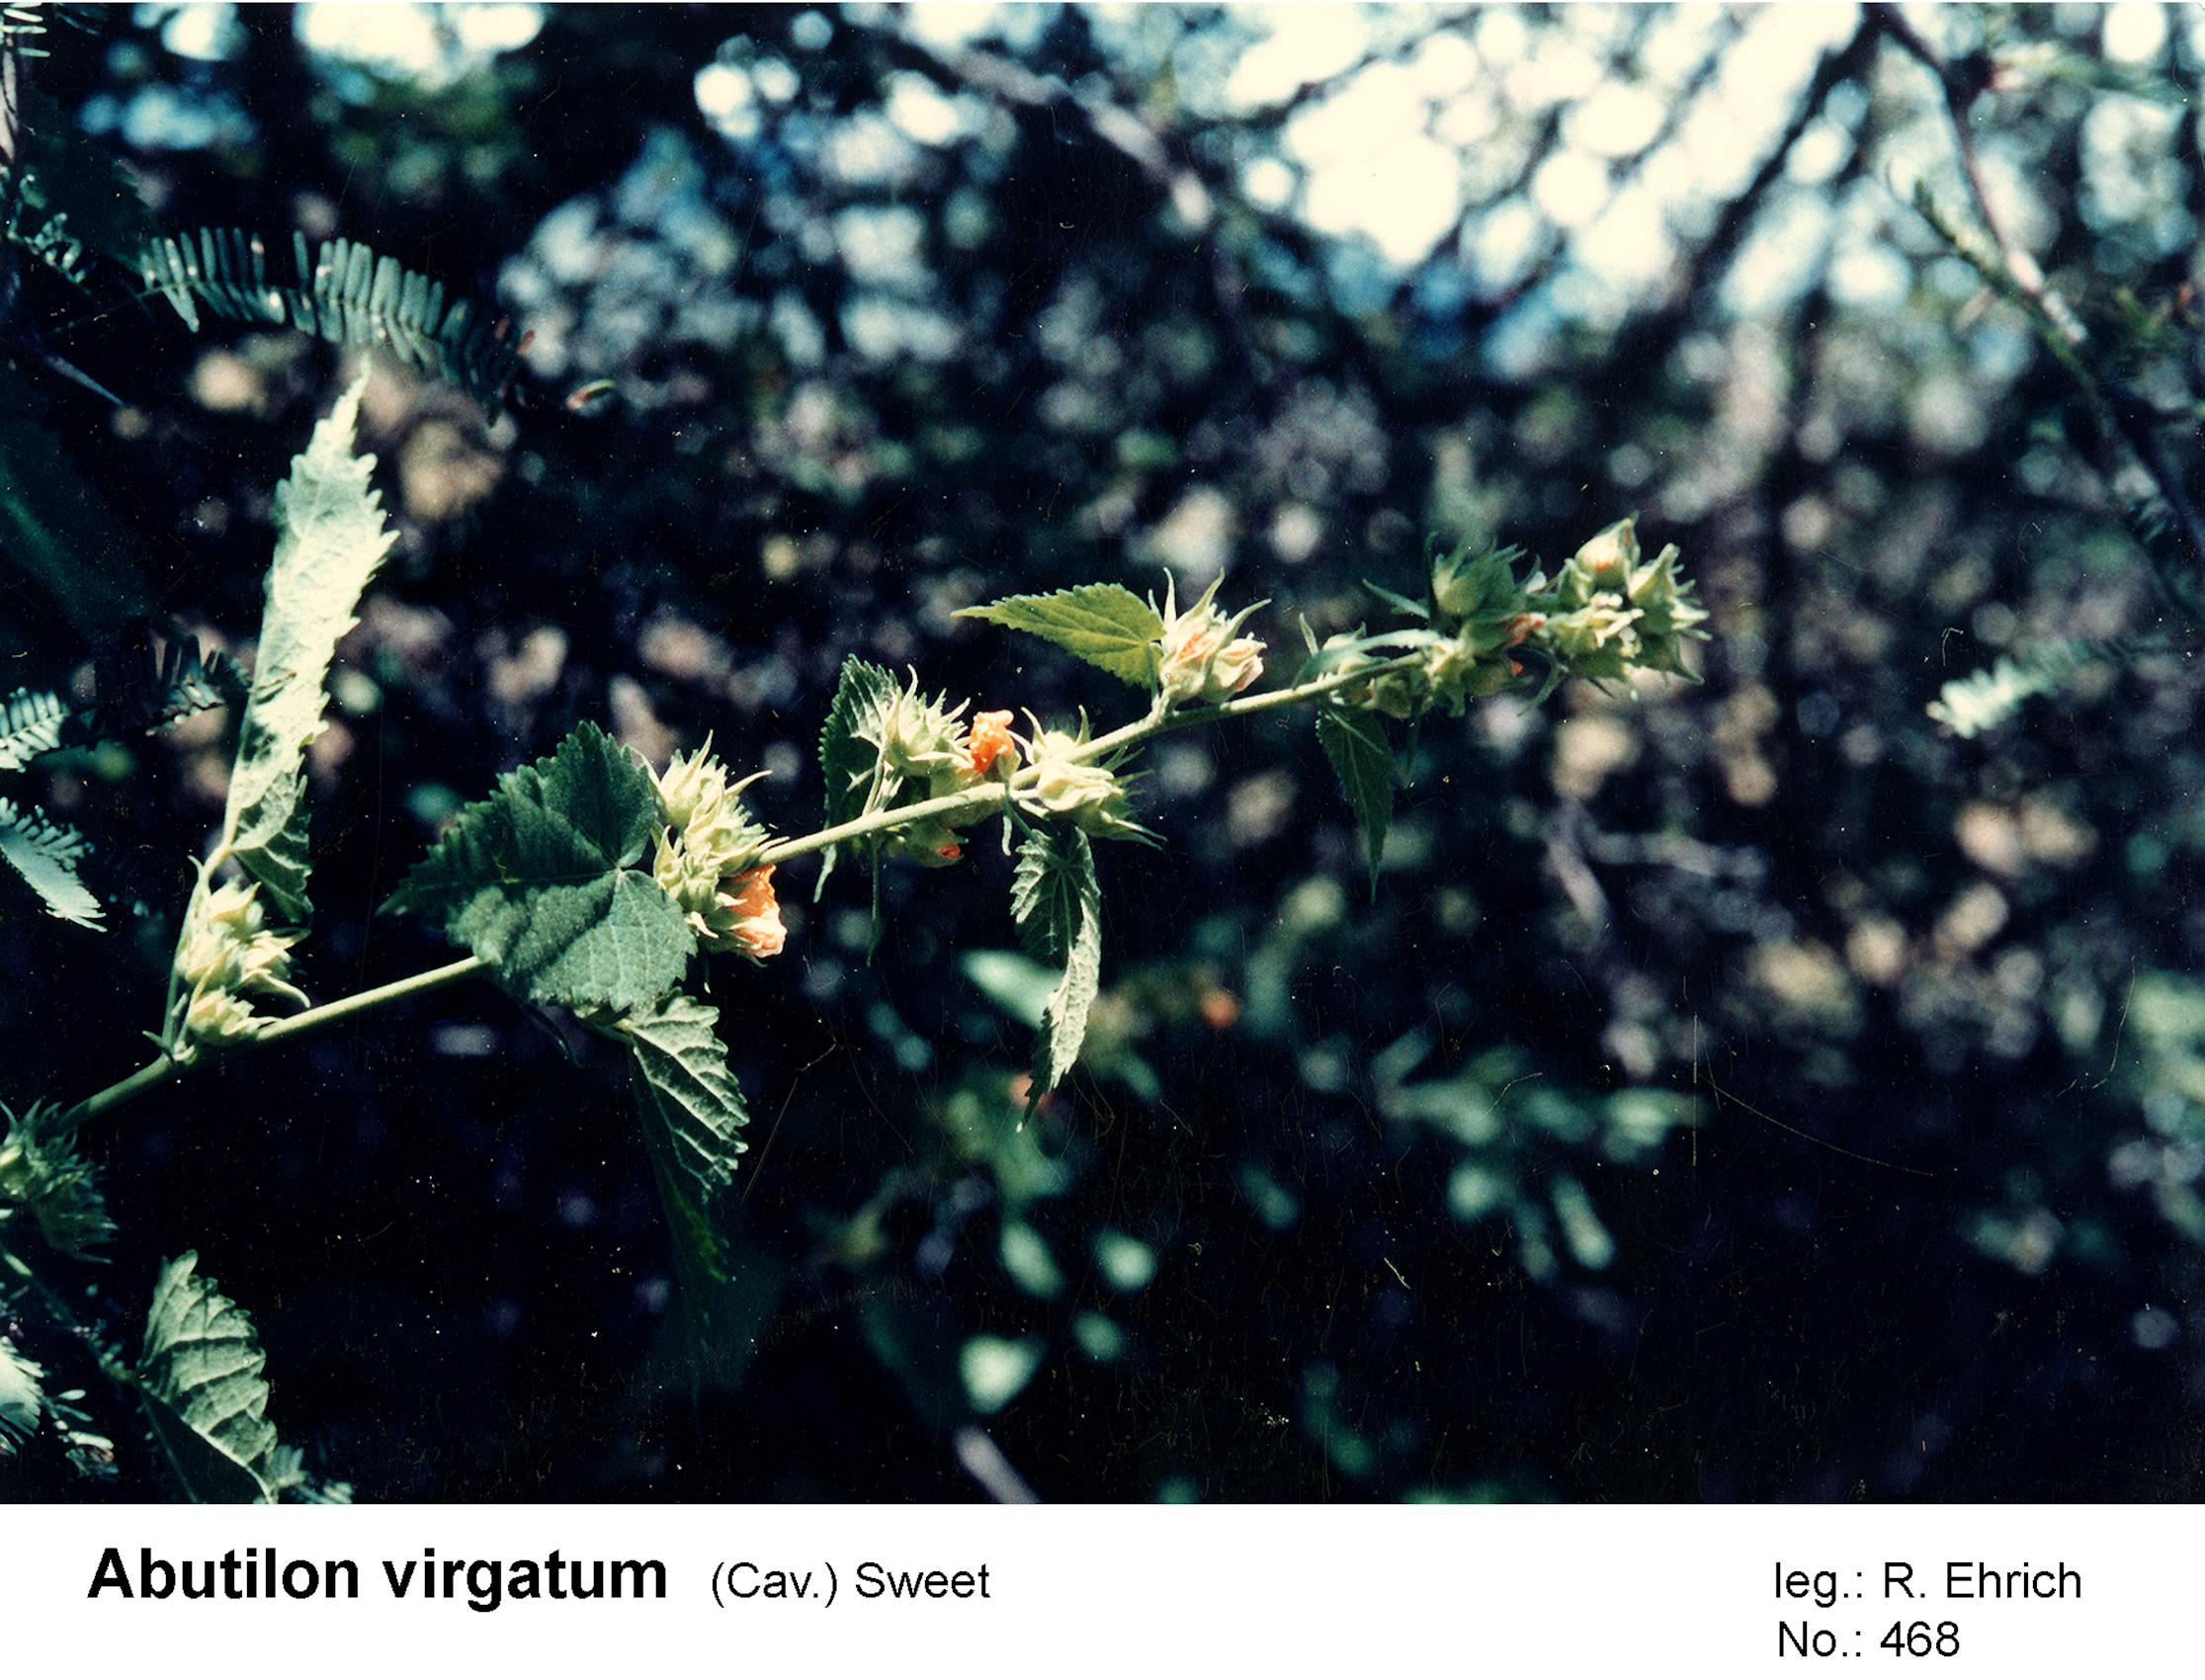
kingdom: Plantae
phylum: Tracheophyta
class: Magnoliopsida
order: Malvales
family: Malvaceae
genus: Pseudabutilon
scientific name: Pseudabutilon virgatum
